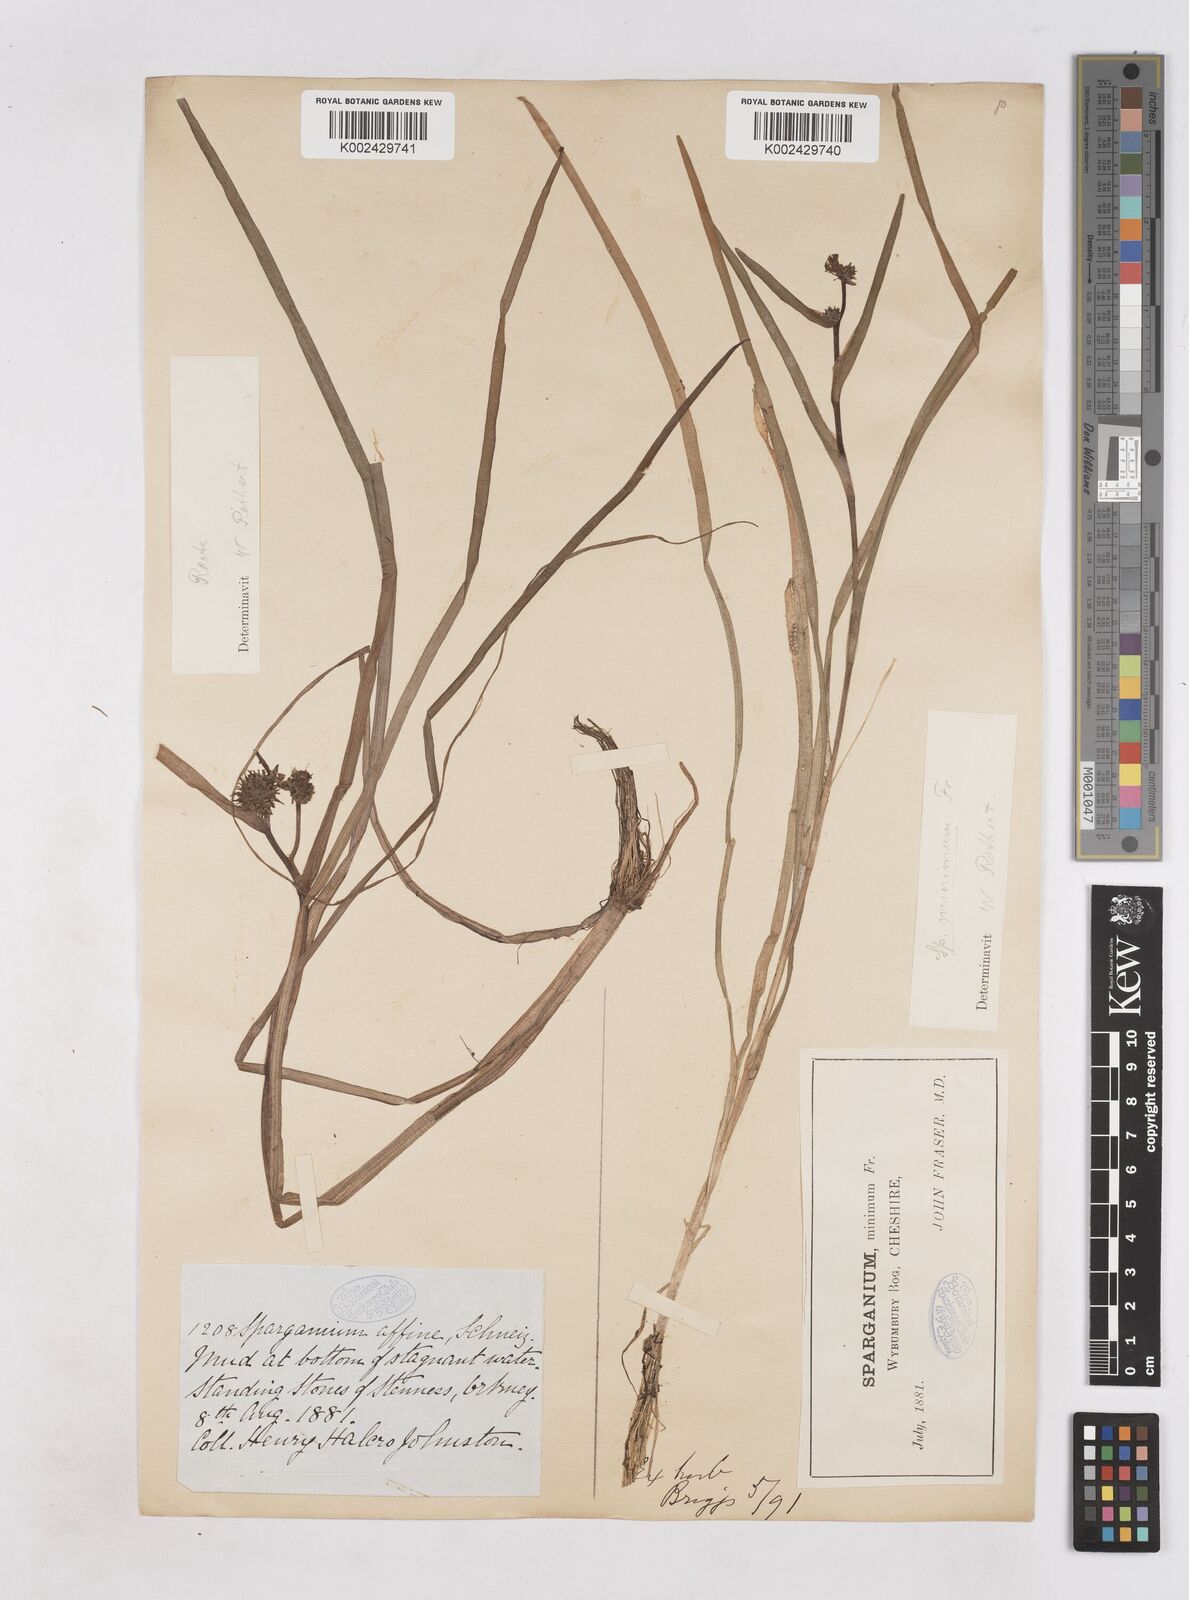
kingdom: Plantae
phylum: Tracheophyta
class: Liliopsida
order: Poales
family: Typhaceae
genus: Sparganium
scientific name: Sparganium angustifolium
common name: Floating bur-reed
